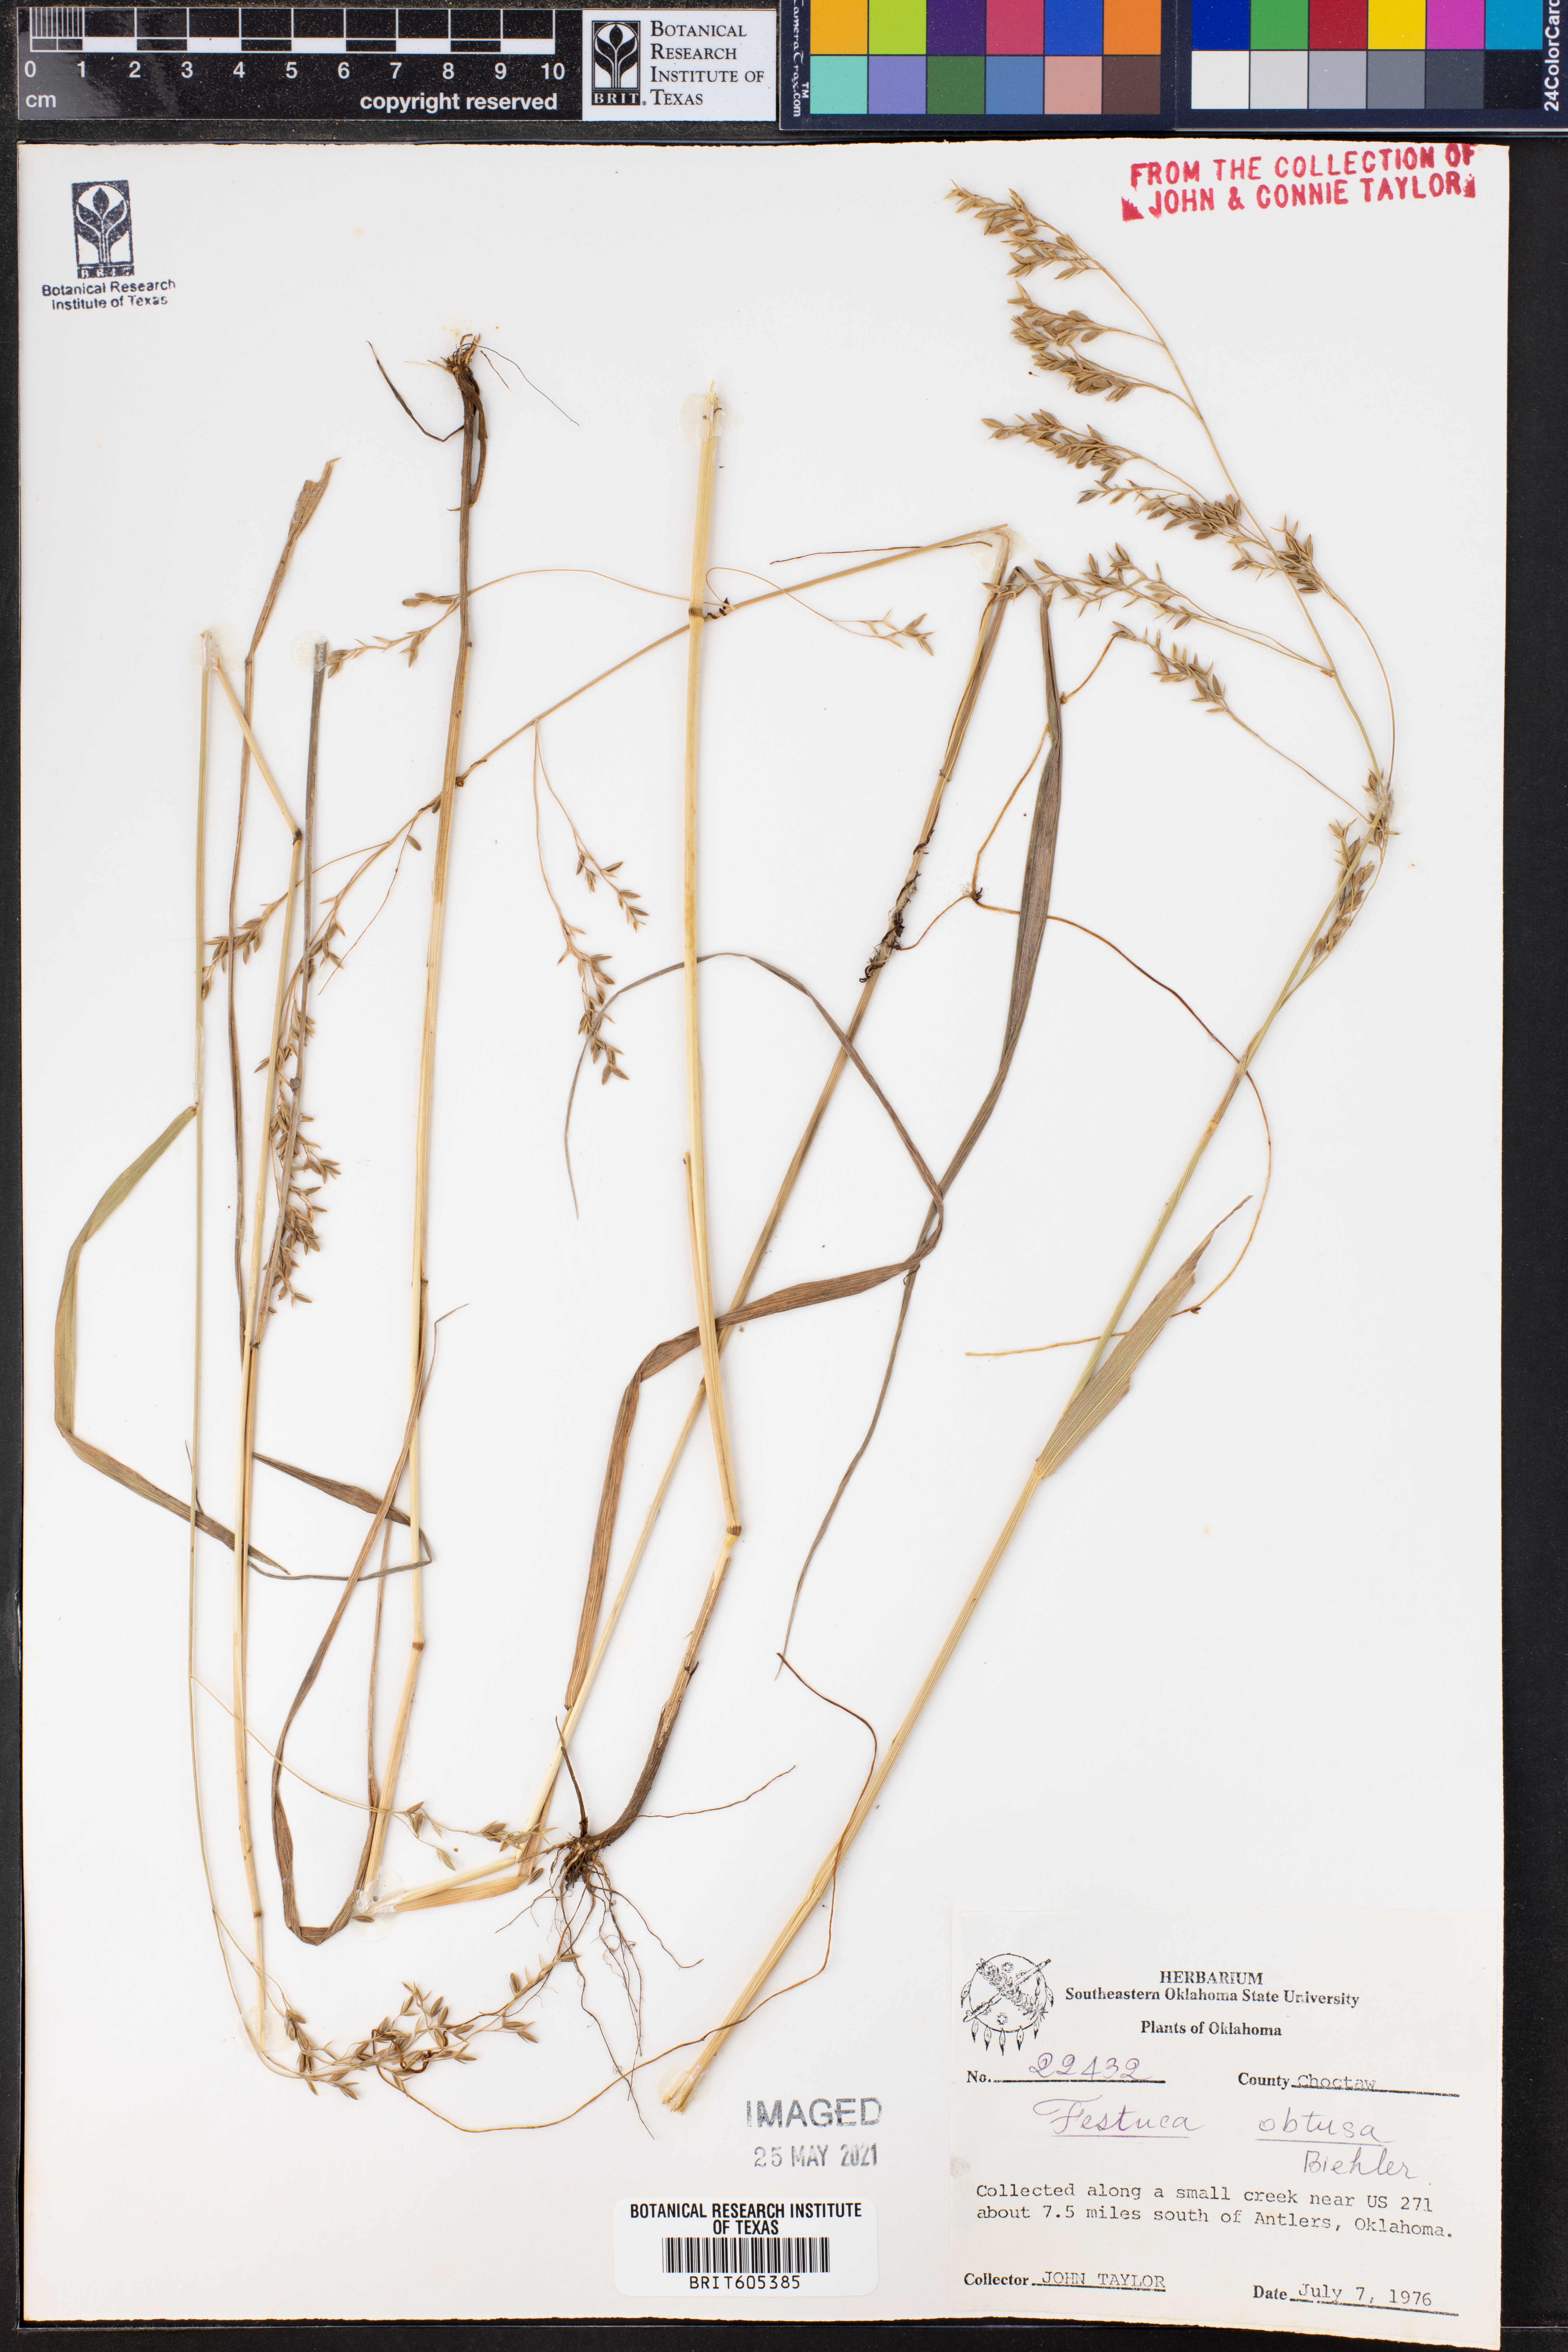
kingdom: Plantae
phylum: Tracheophyta
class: Liliopsida
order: Poales
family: Poaceae
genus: Festuca
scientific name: Festuca subverticillata
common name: Nodding fescue
